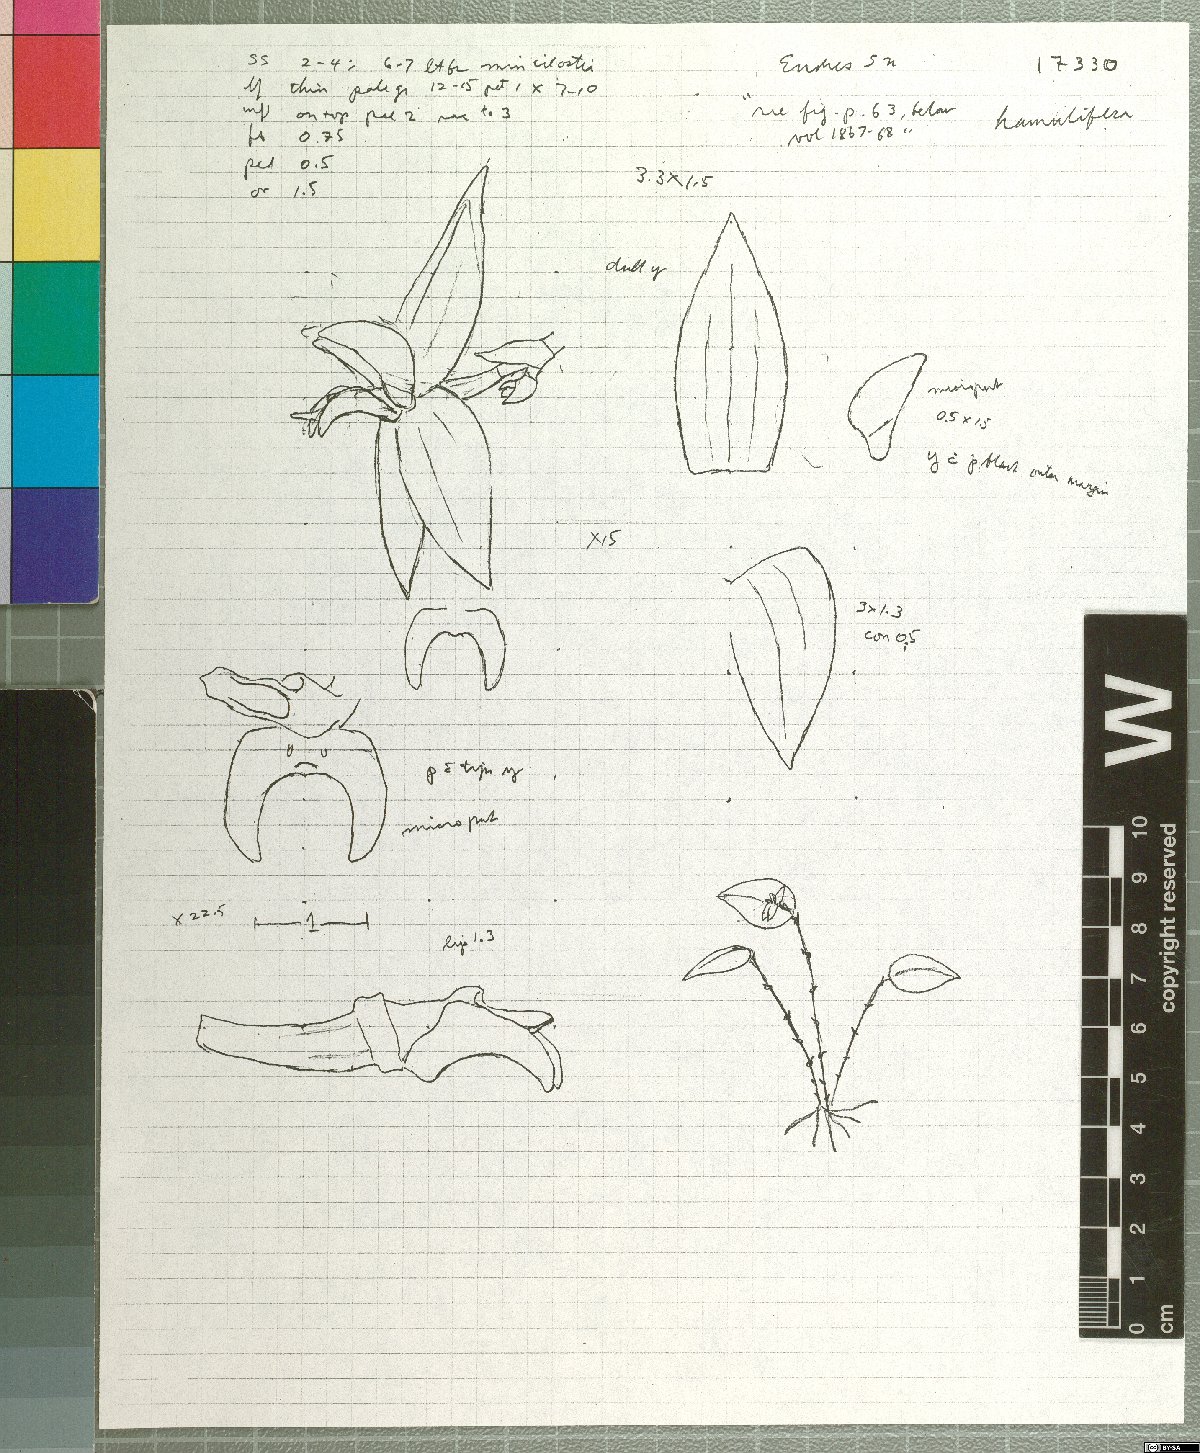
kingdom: Plantae
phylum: Tracheophyta
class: Liliopsida
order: Asparagales
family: Orchidaceae
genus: Lepanthes
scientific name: Lepanthes hamulifera
